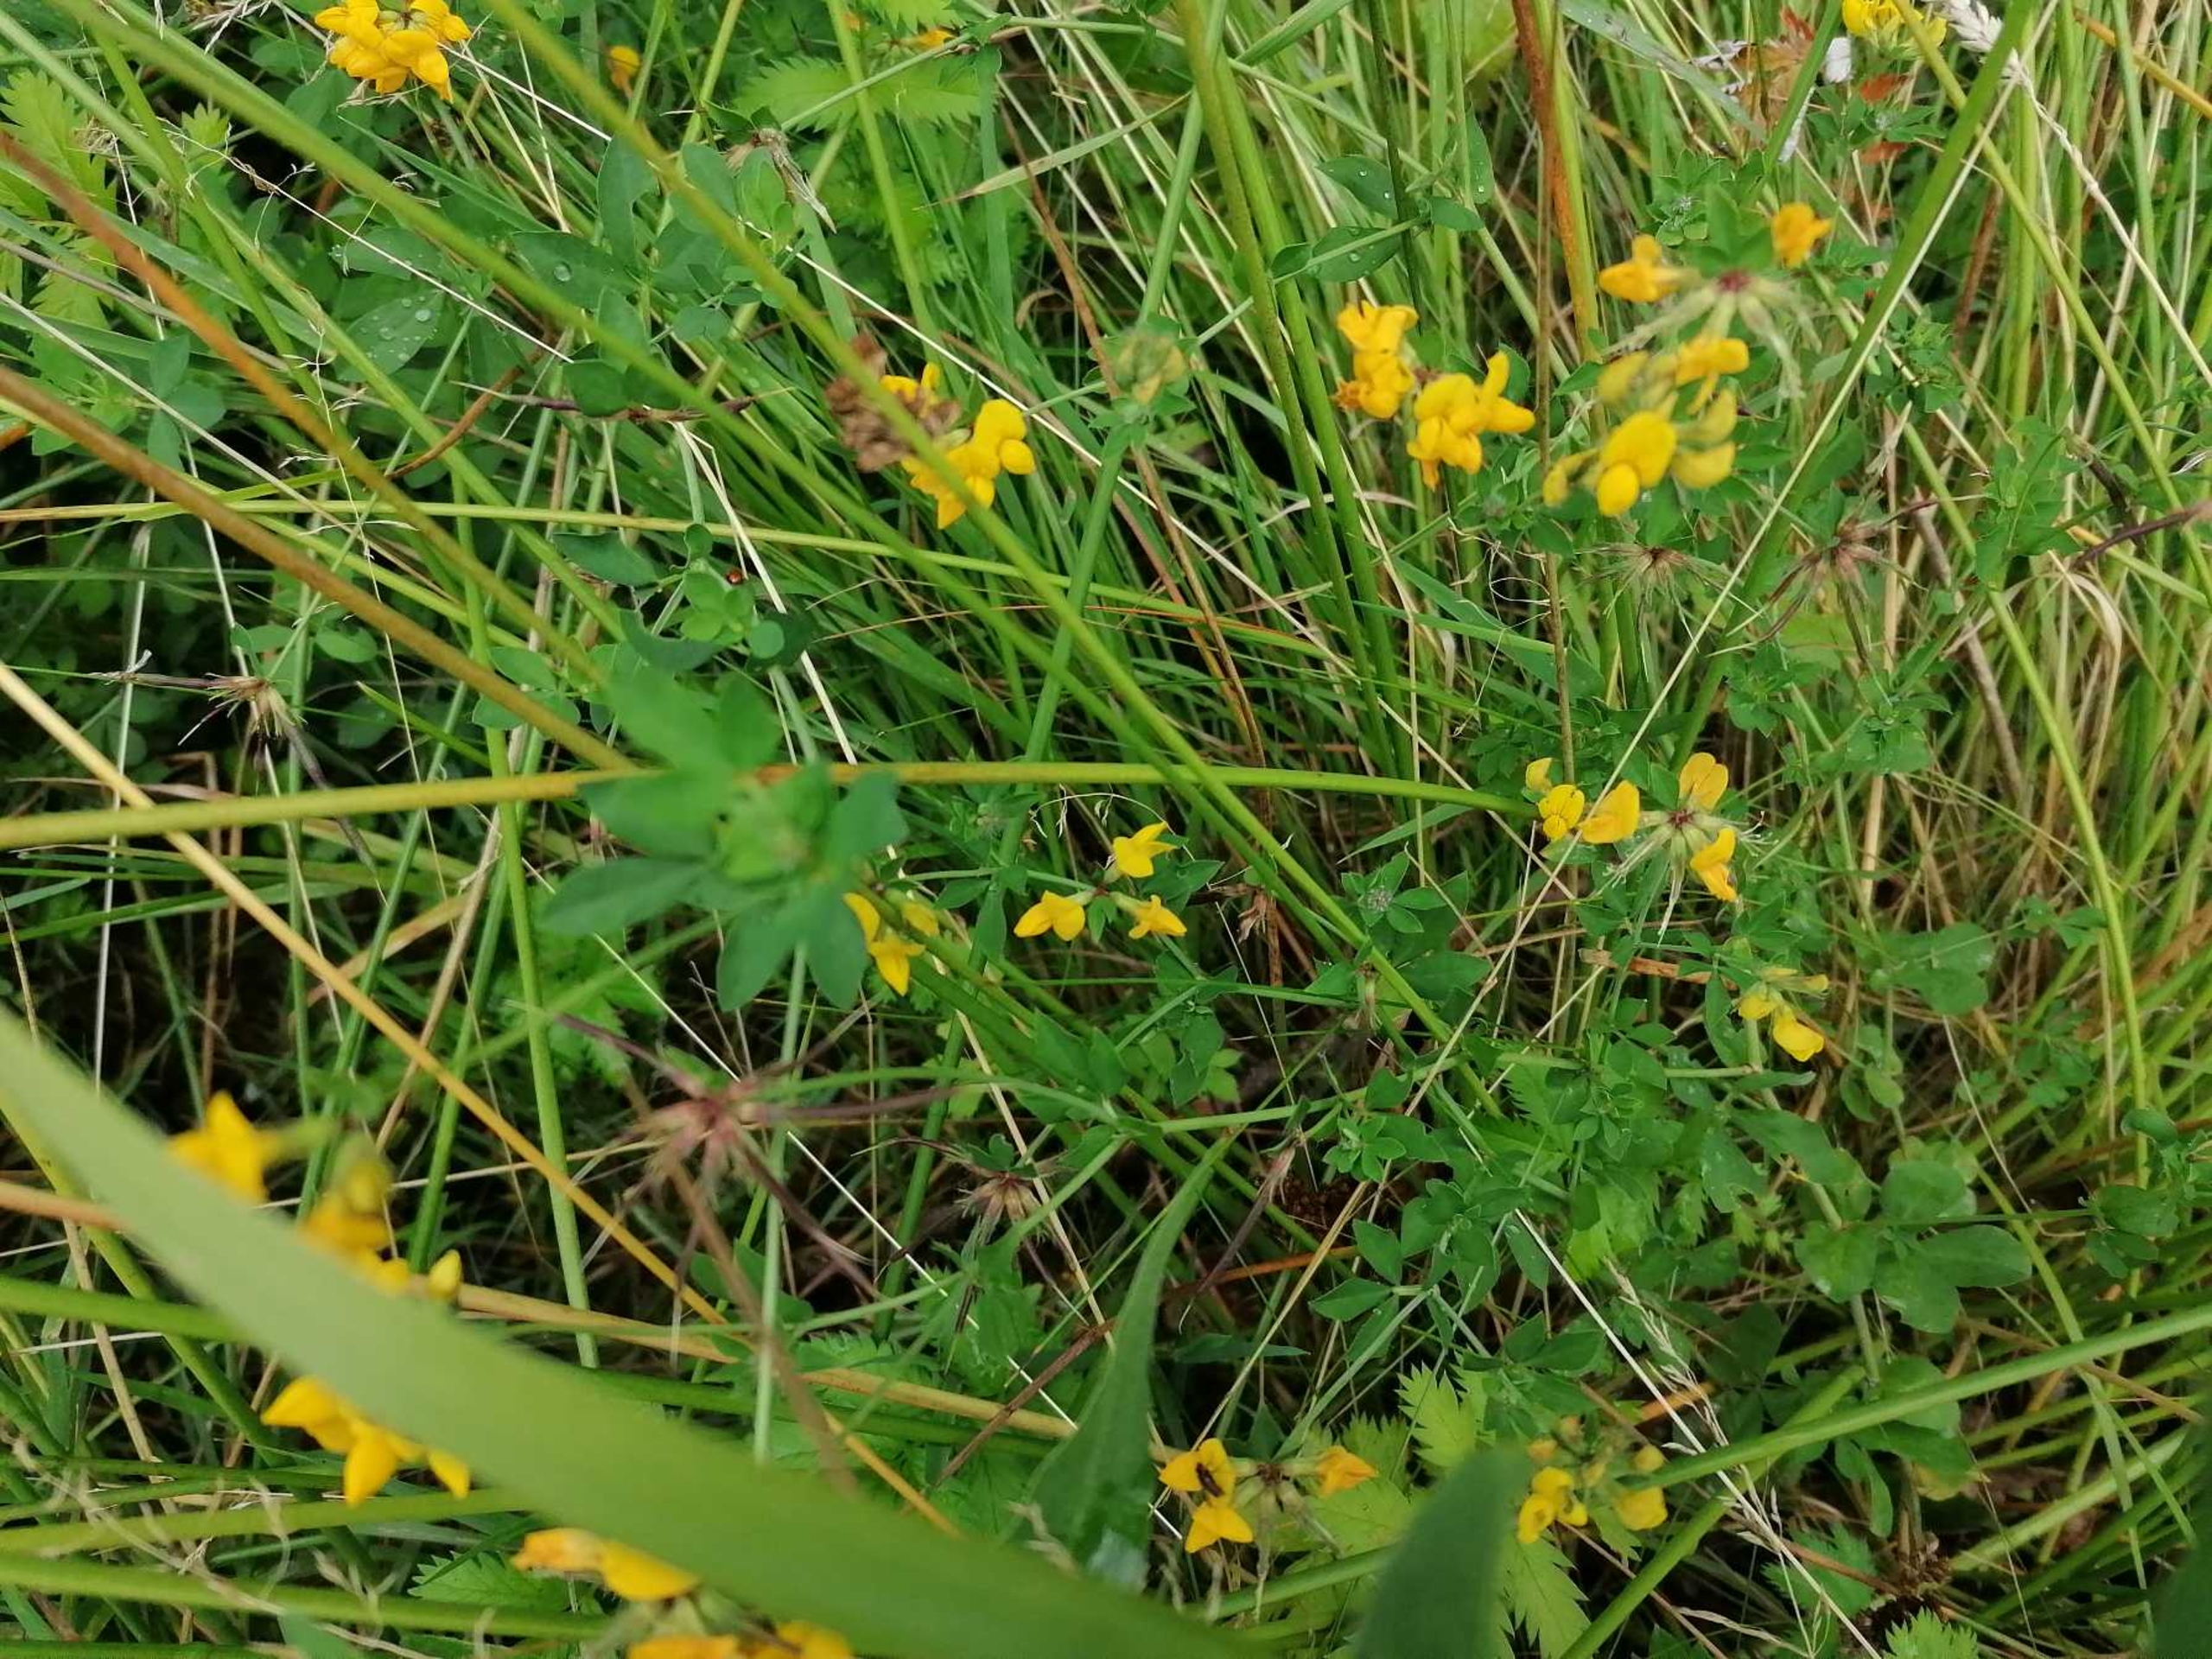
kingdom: Plantae
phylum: Tracheophyta
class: Magnoliopsida
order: Fabales
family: Fabaceae
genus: Lotus
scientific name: Lotus corniculatus
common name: Almindelig kællingetand
